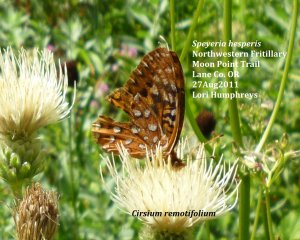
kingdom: Animalia
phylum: Arthropoda
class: Insecta
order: Lepidoptera
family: Nymphalidae
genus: Speyeria
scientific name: Speyeria atlantis
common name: Northwestern Fritillary
